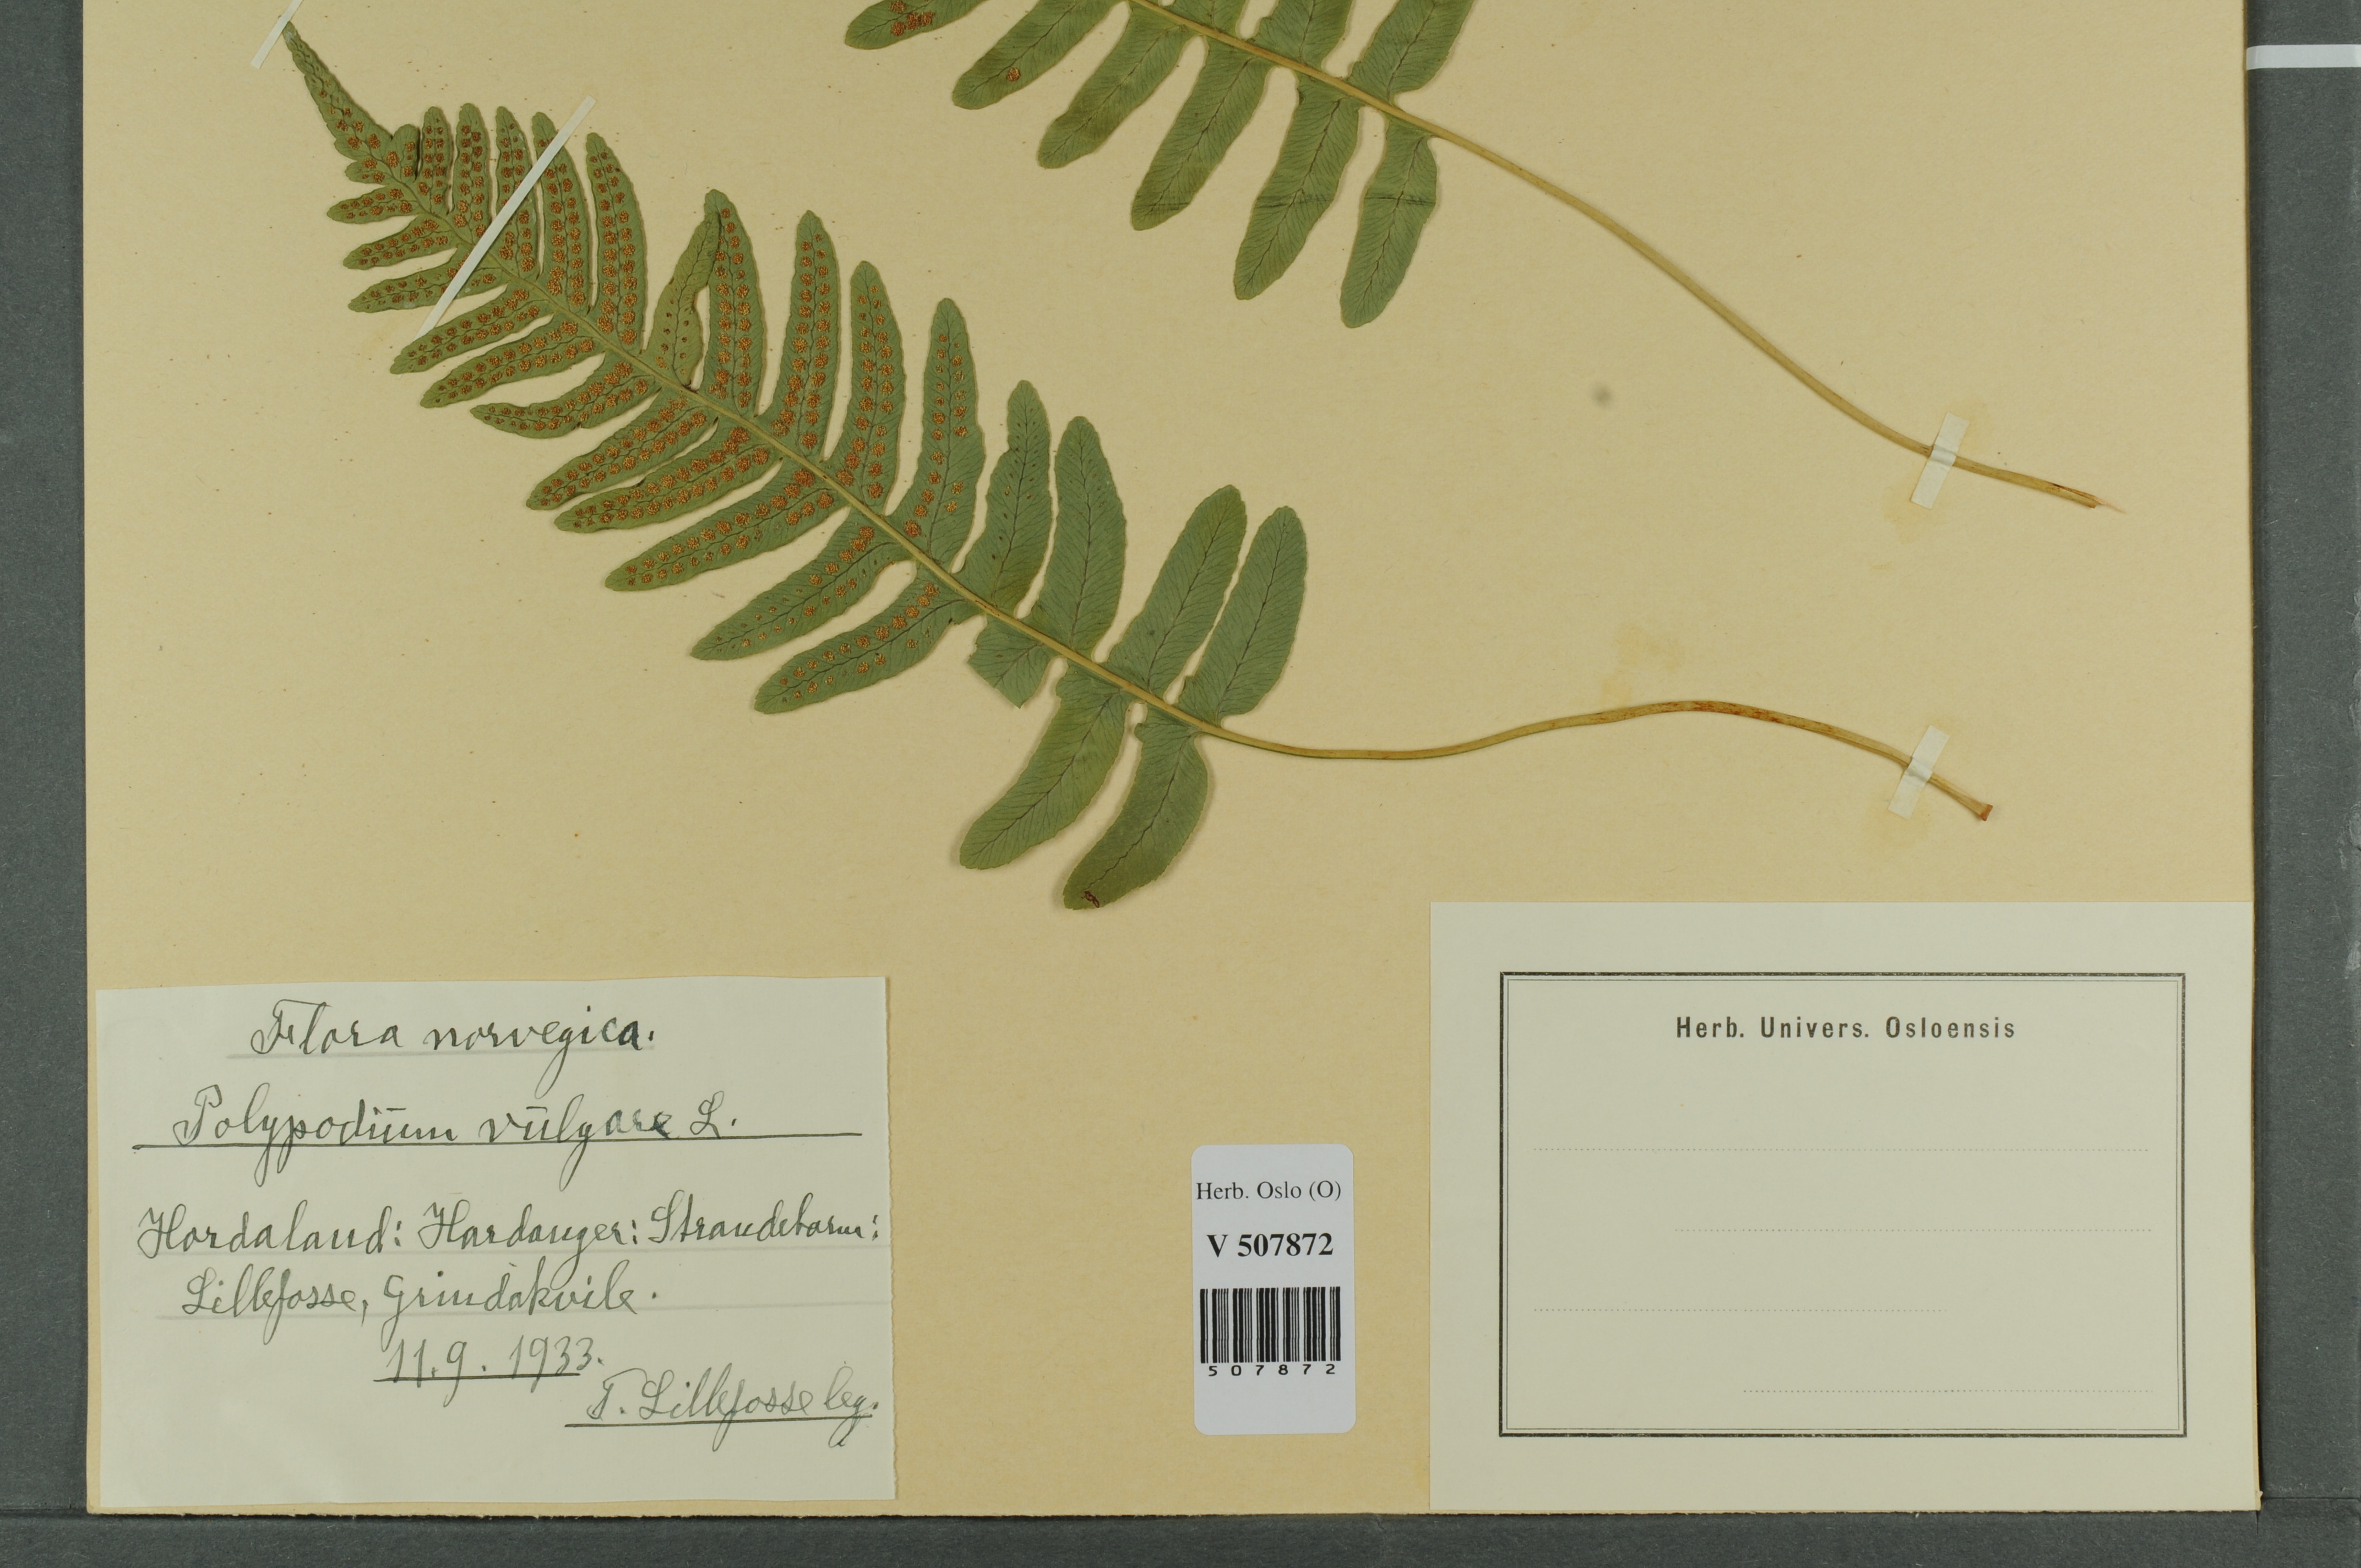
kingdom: Plantae
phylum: Tracheophyta
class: Polypodiopsida
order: Polypodiales
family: Polypodiaceae
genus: Polypodium
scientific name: Polypodium vulgare
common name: Common polypody
